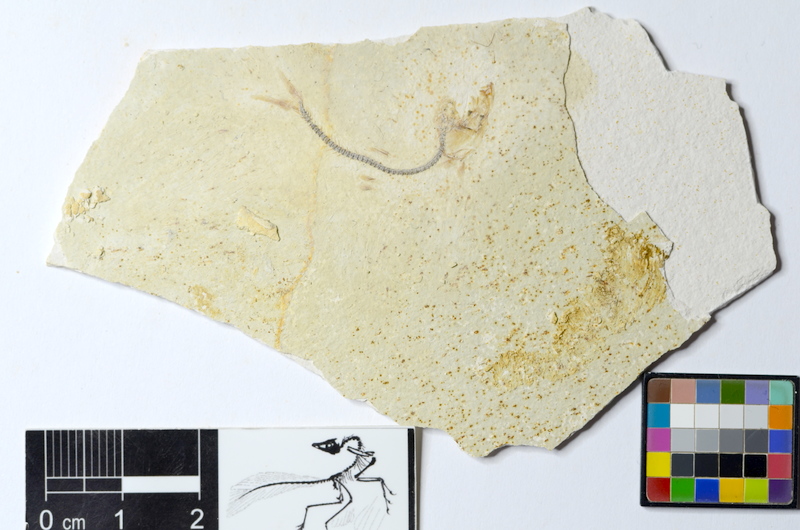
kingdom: Animalia
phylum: Chordata
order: Salmoniformes
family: Orthogonikleithridae
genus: Orthogonikleithrus
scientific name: Orthogonikleithrus hoelli
